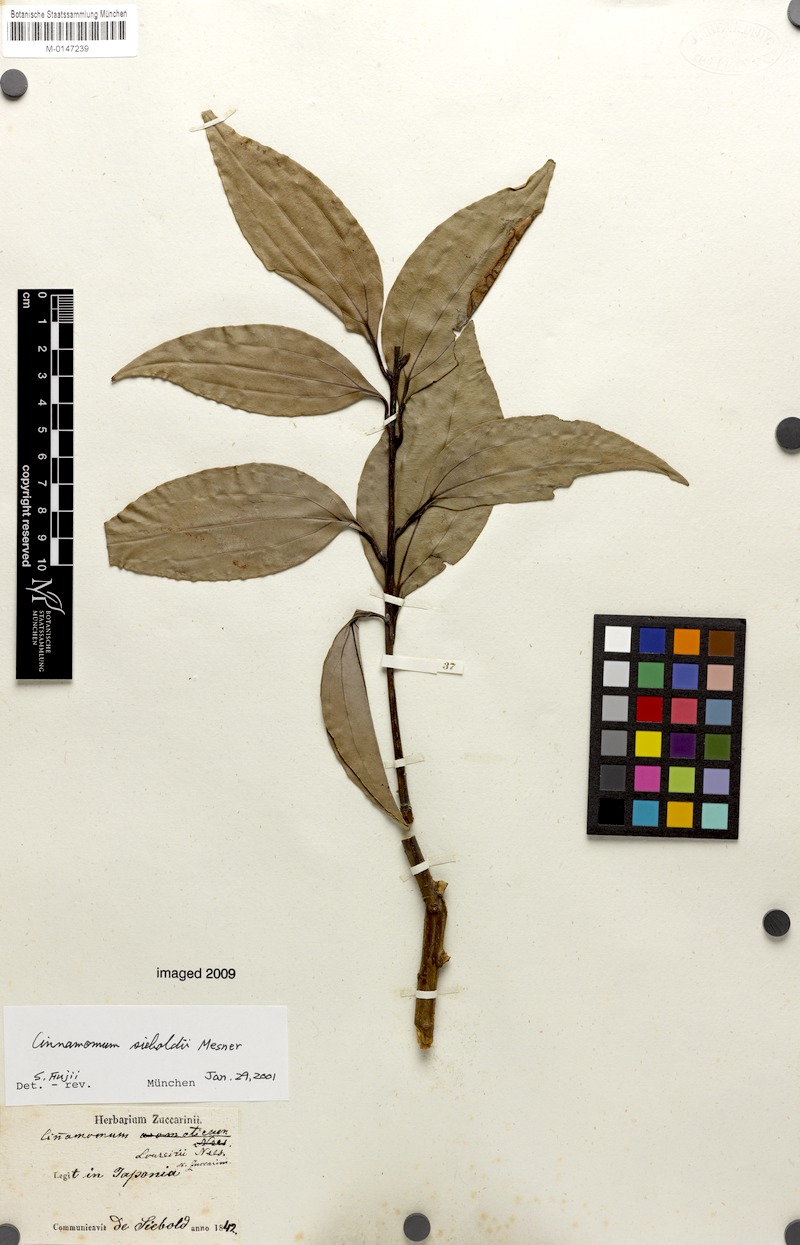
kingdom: Plantae
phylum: Tracheophyta
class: Magnoliopsida
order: Laurales
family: Lauraceae
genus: Cinnamomum
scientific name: Cinnamomum sieboldii
